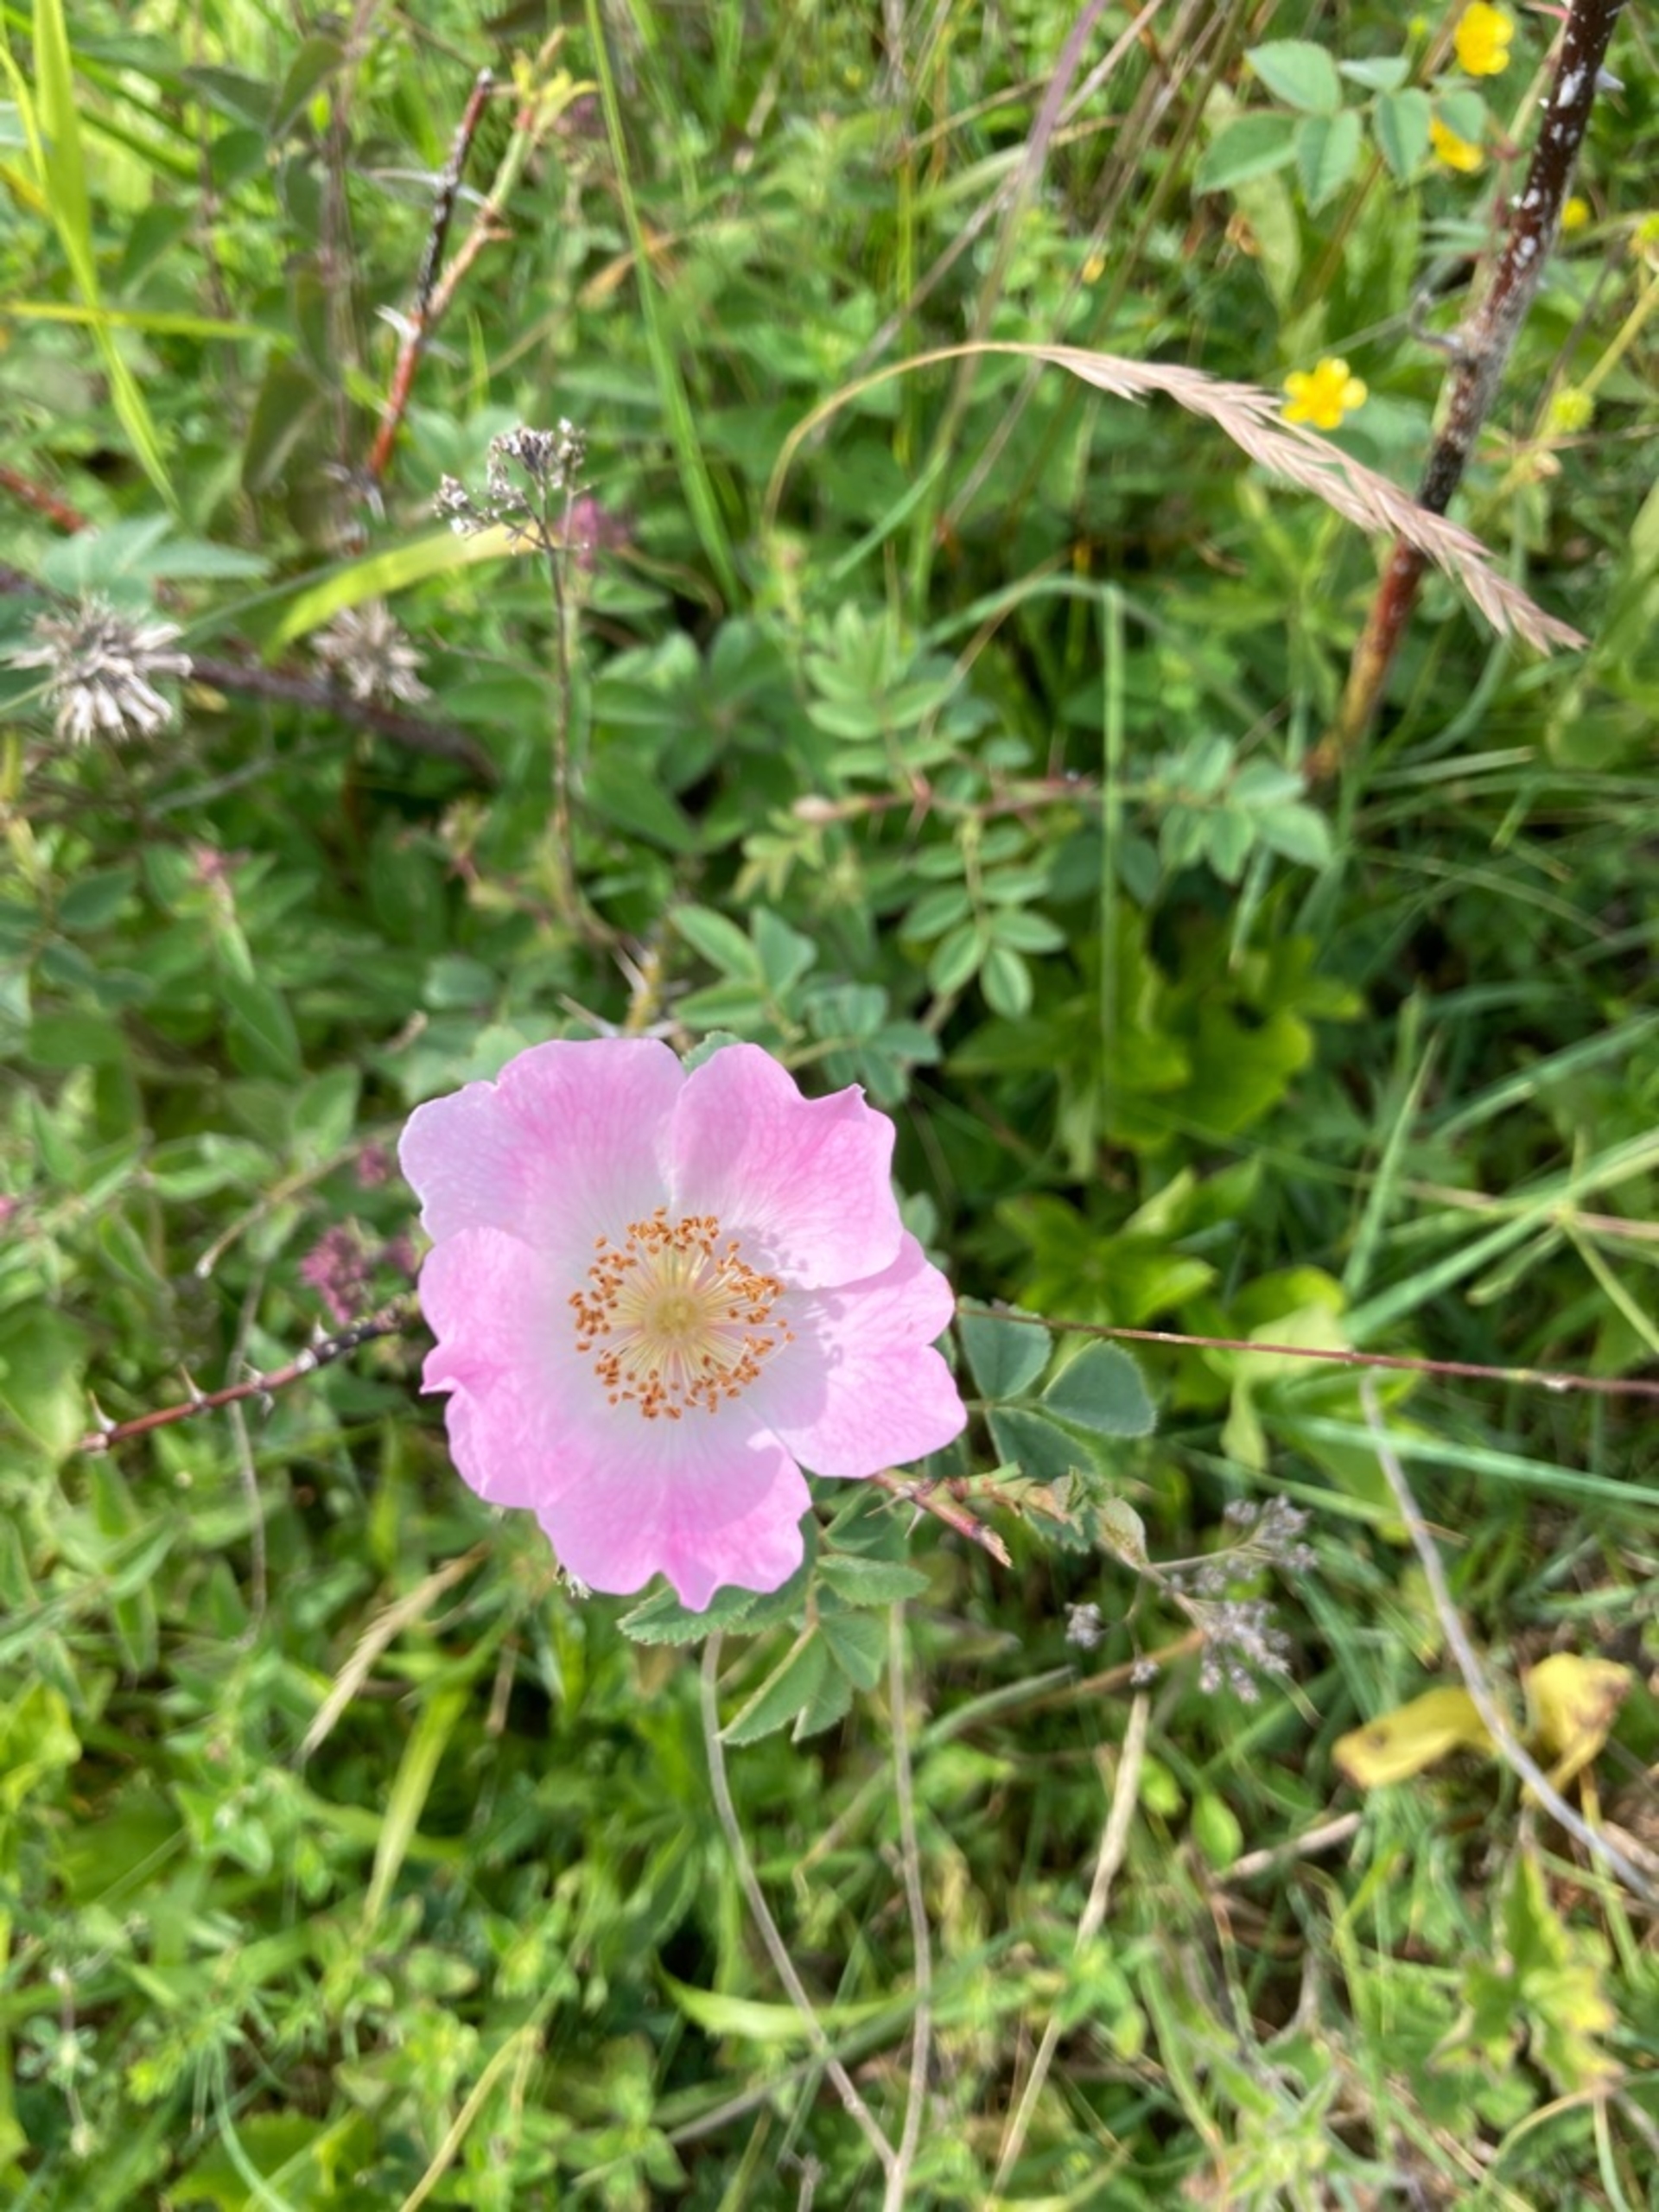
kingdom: Plantae
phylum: Tracheophyta
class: Magnoliopsida
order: Rosales
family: Rosaceae
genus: Rosa
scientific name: Rosa mollis
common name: Blød filt-rose
